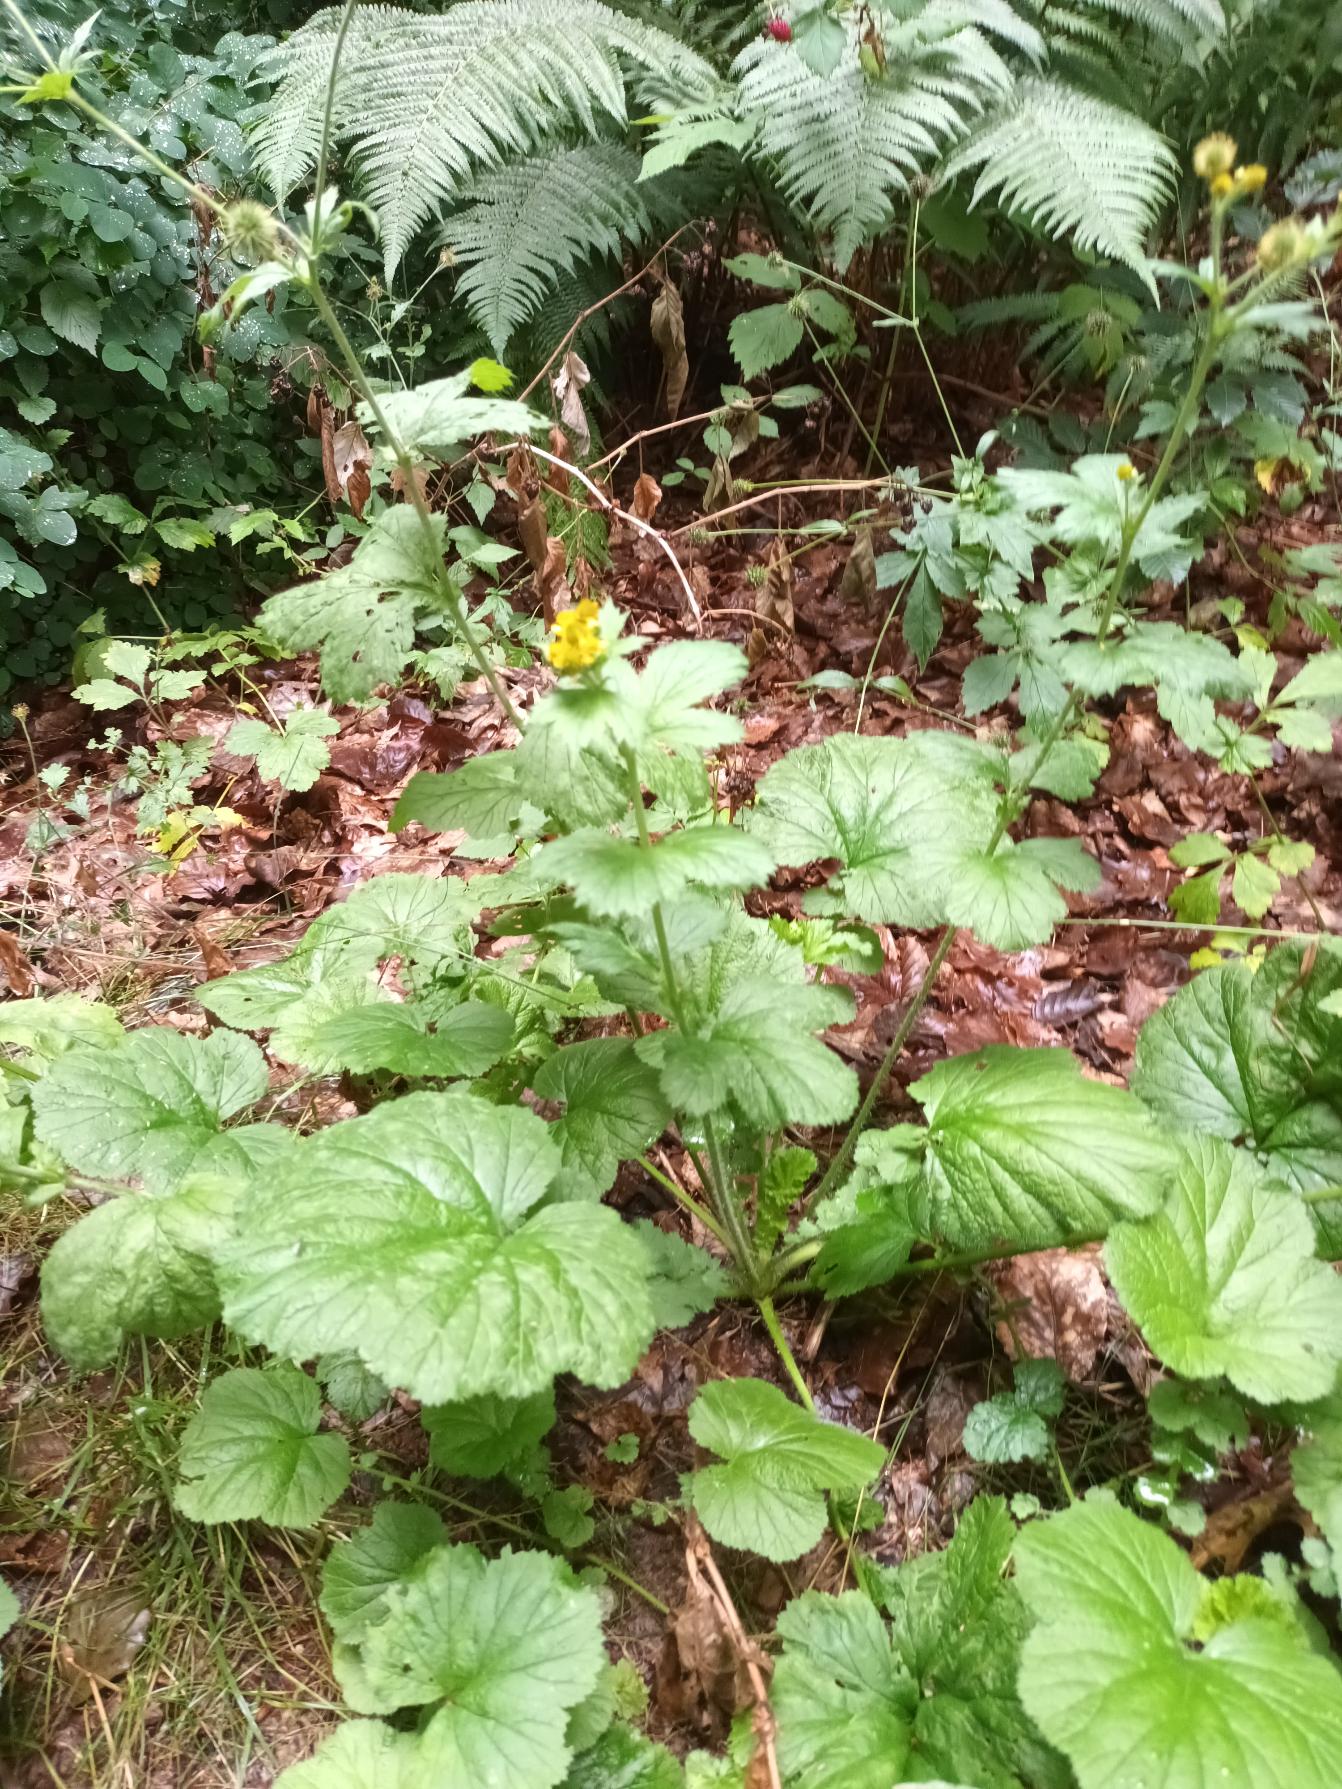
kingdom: Plantae
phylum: Tracheophyta
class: Magnoliopsida
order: Rosales
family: Rosaceae
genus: Geum
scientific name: Geum macrophyllum
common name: Amerikansk nellikerod
